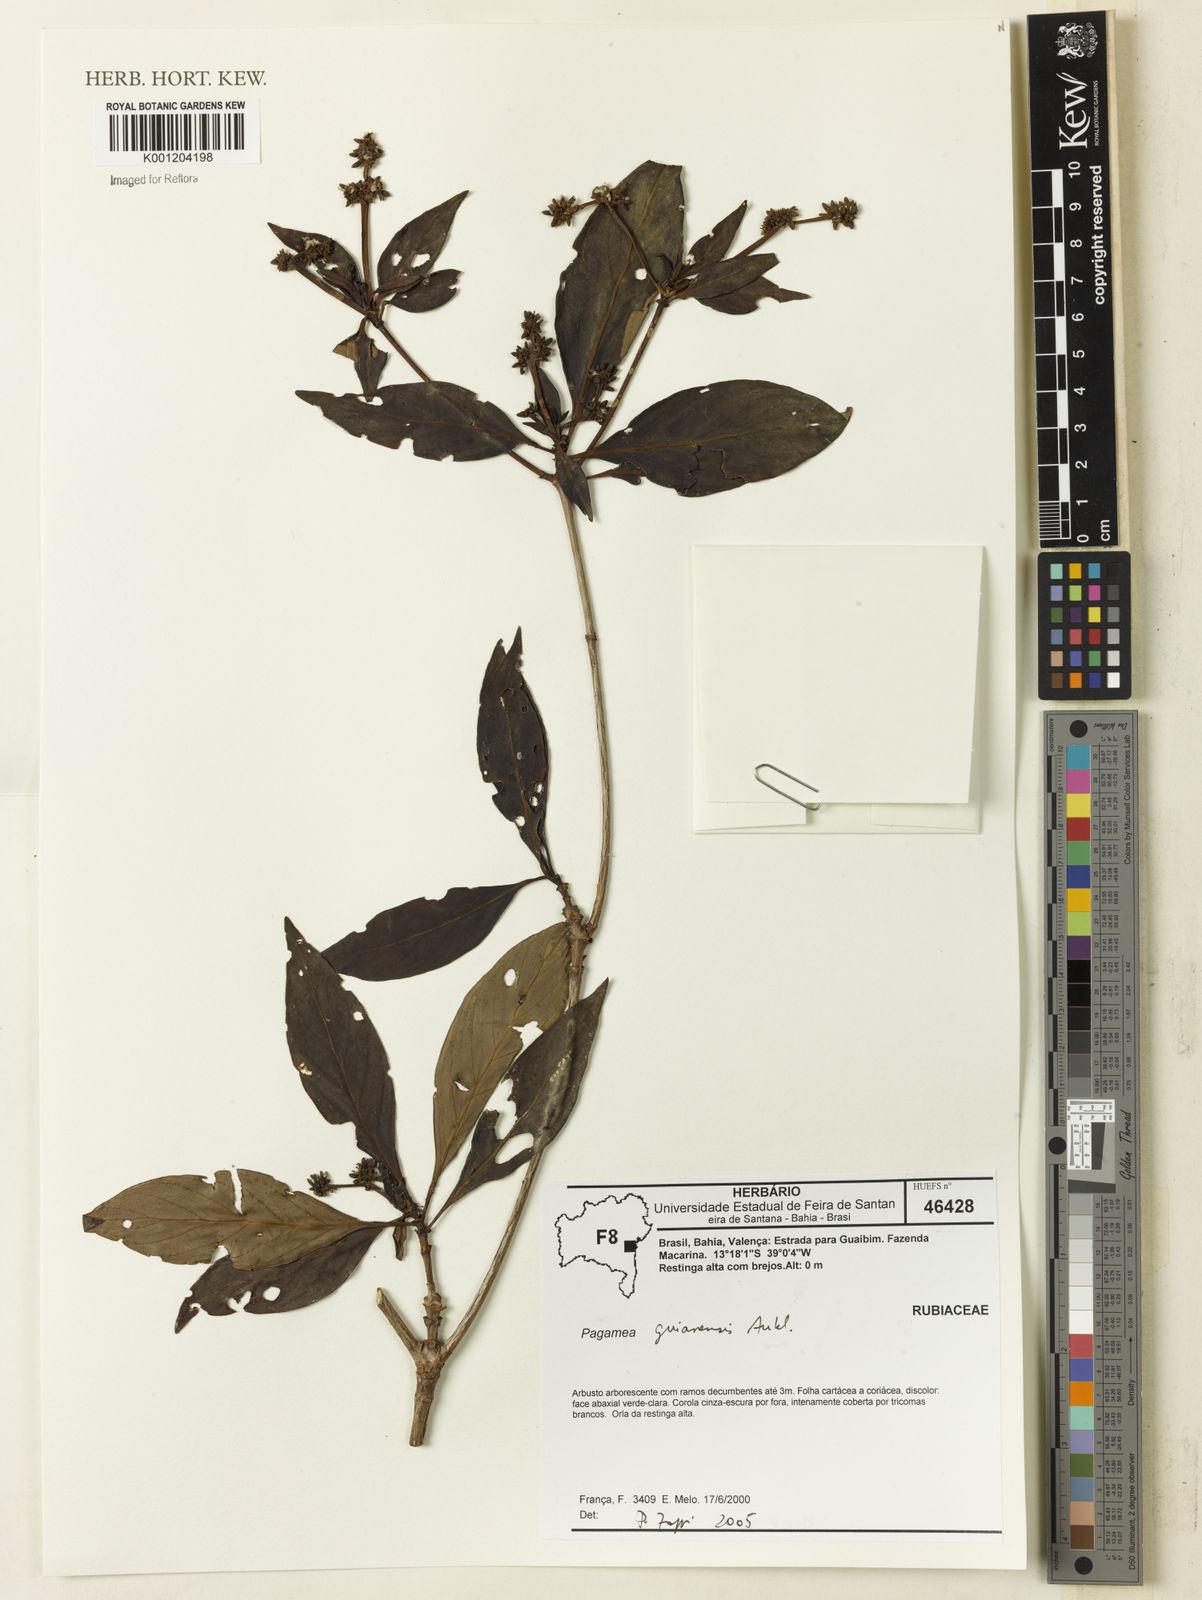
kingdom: Plantae
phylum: Tracheophyta
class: Magnoliopsida
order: Gentianales
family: Rubiaceae
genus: Pagamea
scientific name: Pagamea guianensis
